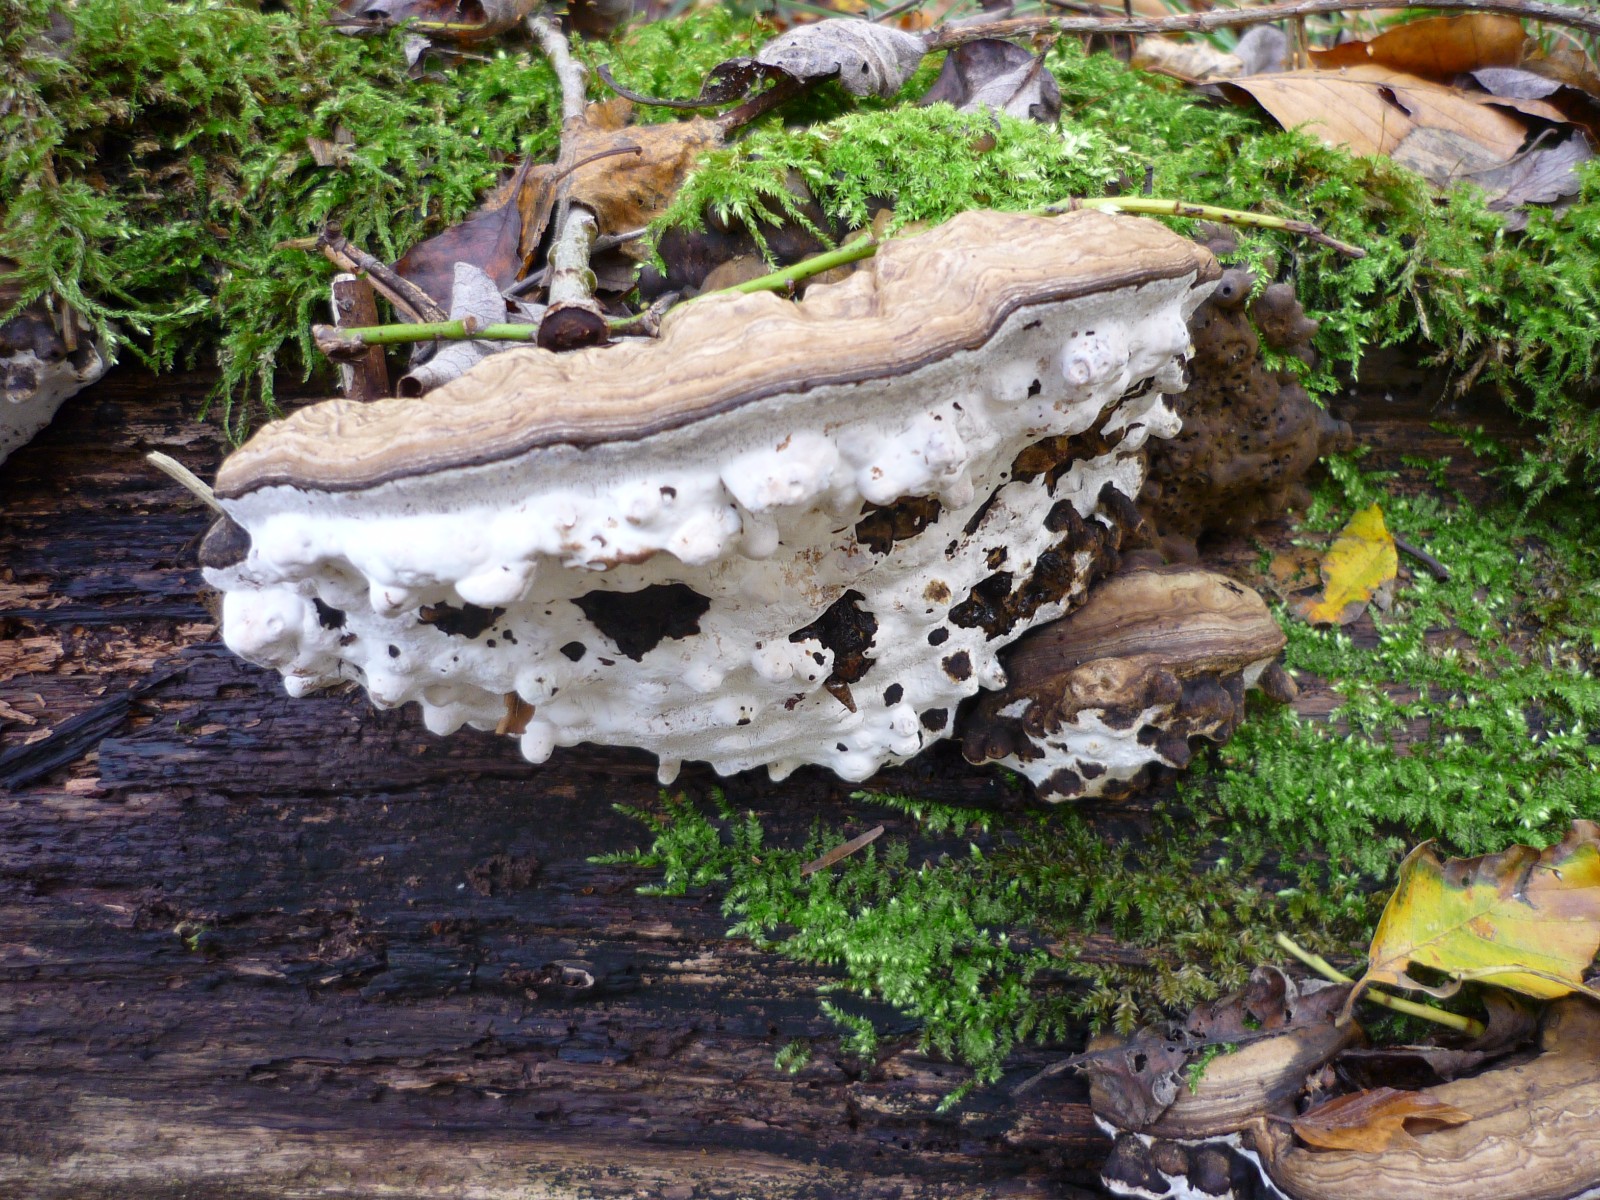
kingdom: Fungi
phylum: Basidiomycota
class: Agaricomycetes
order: Polyporales
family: Polyporaceae
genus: Ganoderma
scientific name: Ganoderma applanatum
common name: flad lakporesvamp
